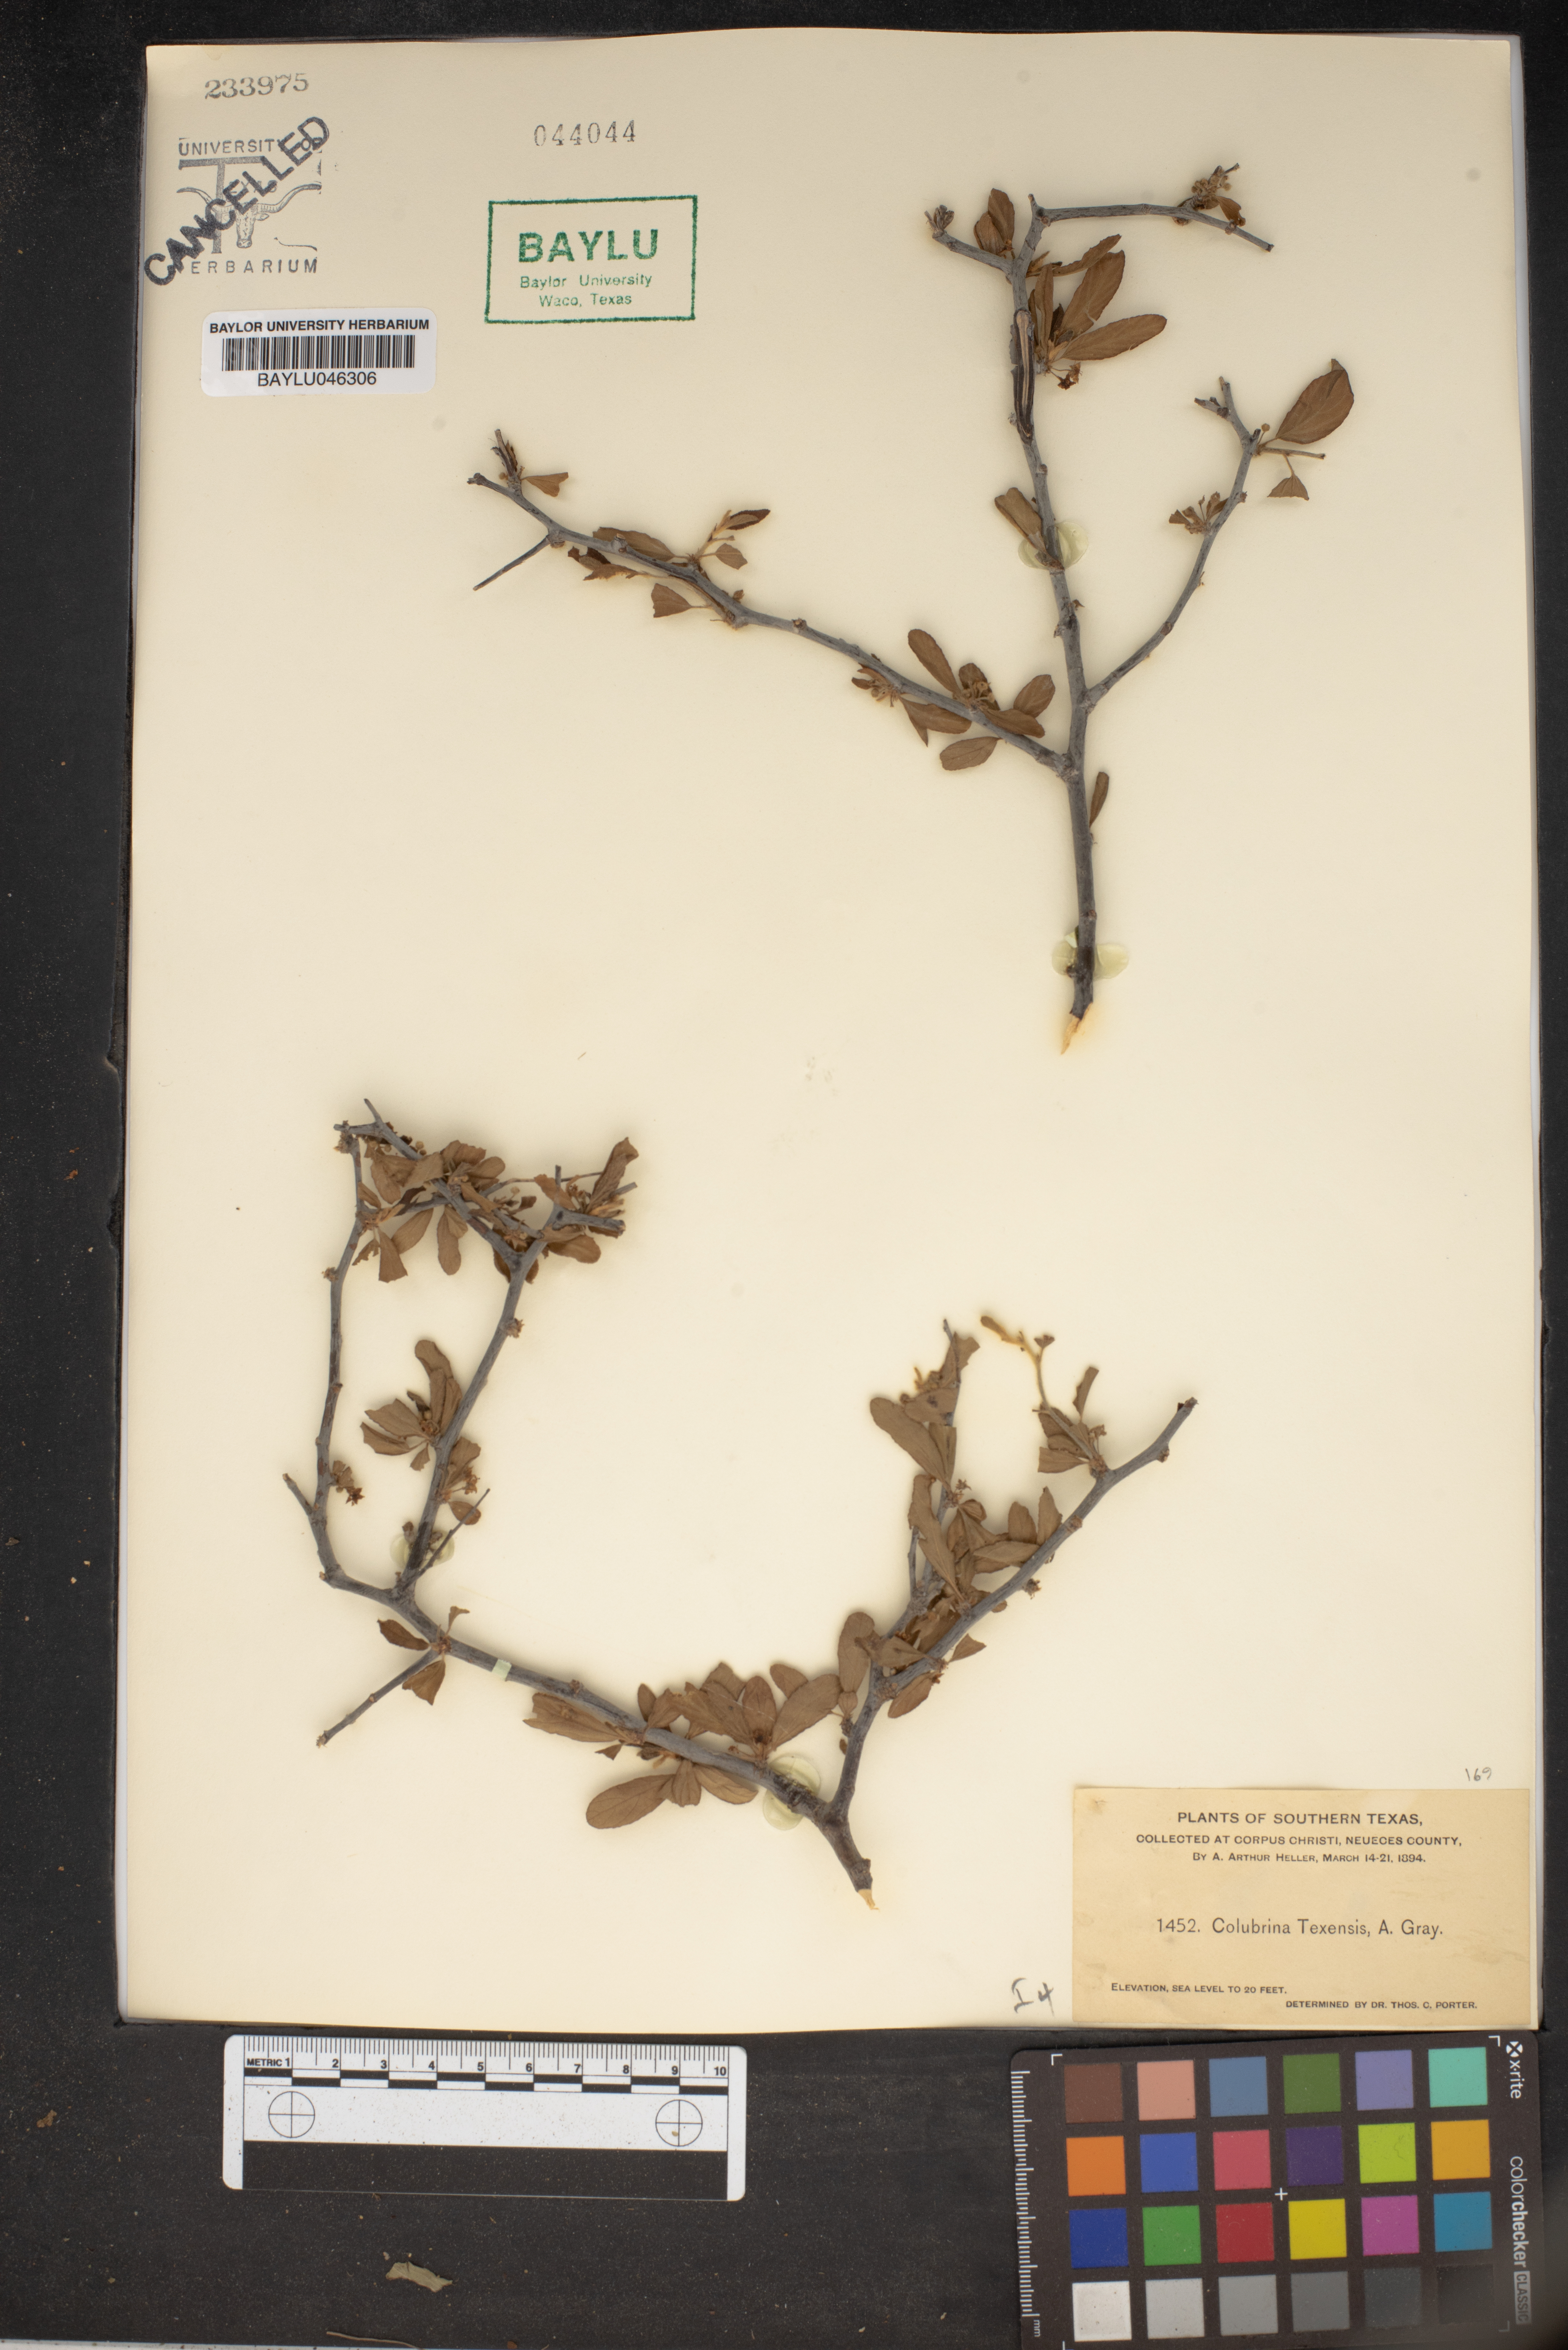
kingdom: Plantae
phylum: Tracheophyta
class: Magnoliopsida
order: Rosales
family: Rhamnaceae
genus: Colubrina
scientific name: Colubrina texensis
